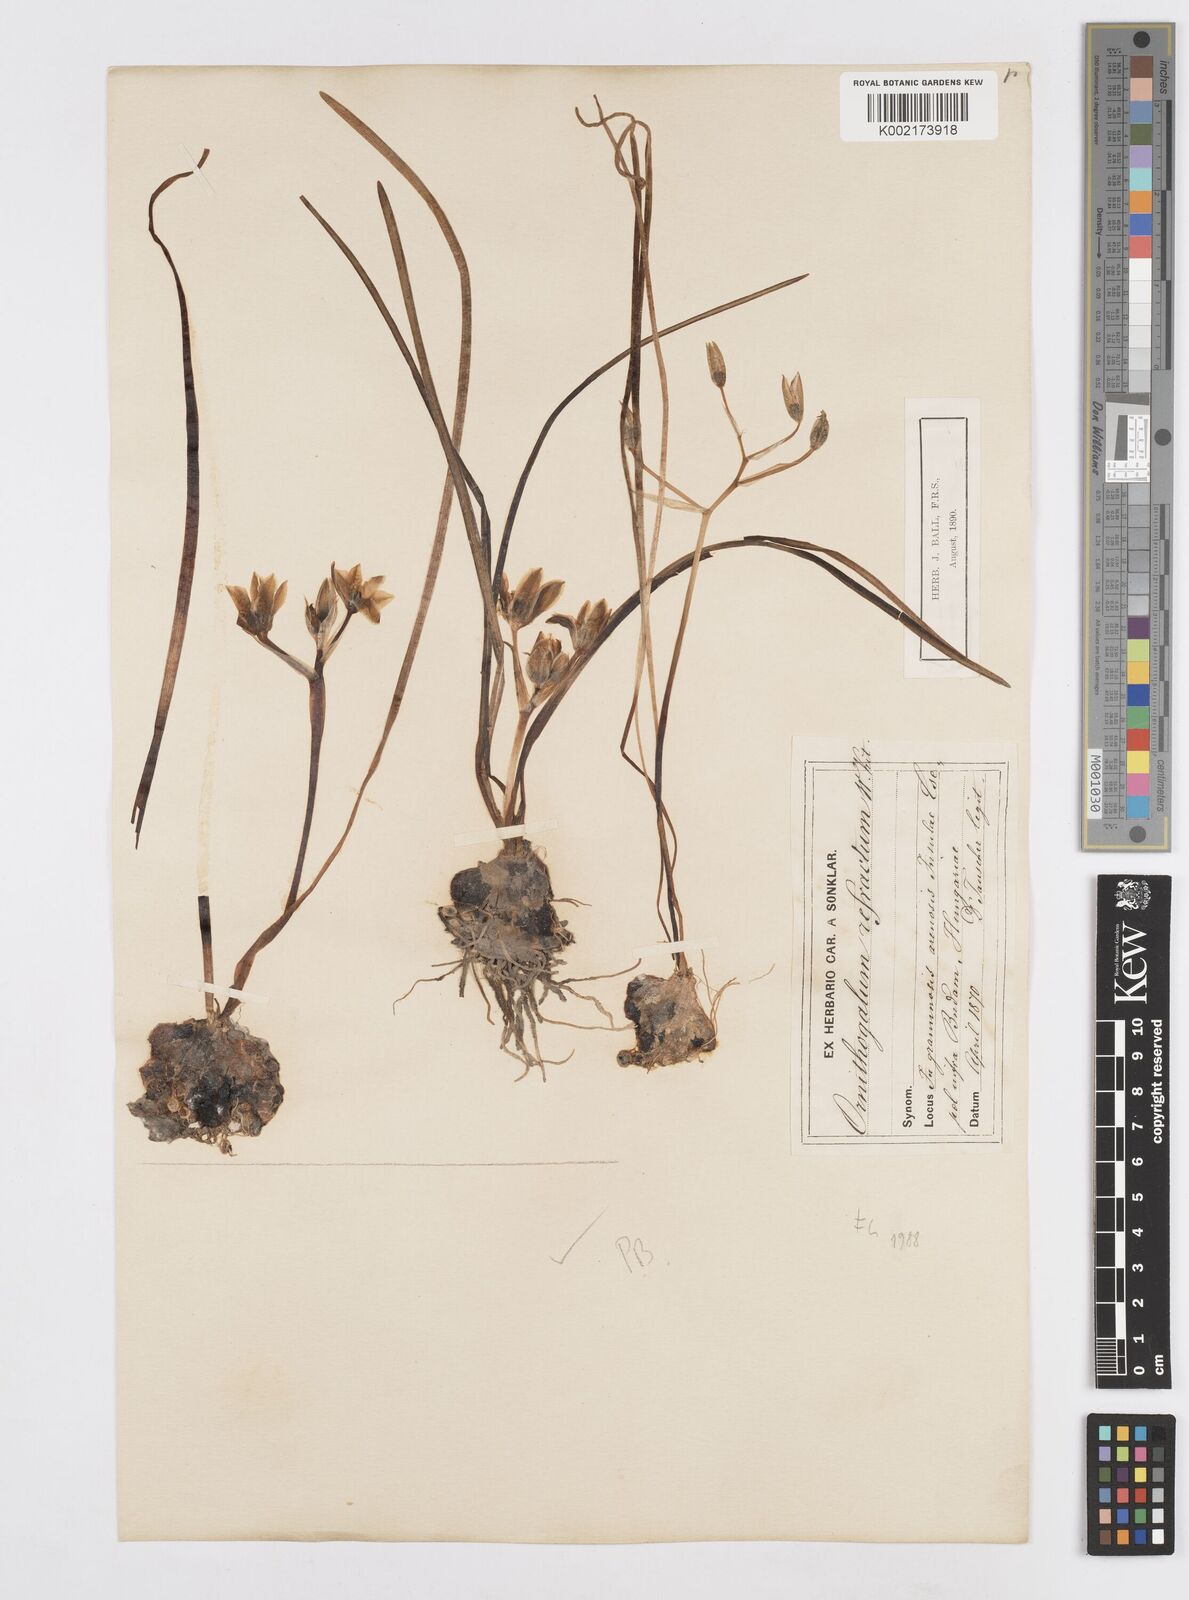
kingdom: Plantae
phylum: Tracheophyta
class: Liliopsida
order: Asparagales
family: Asparagaceae
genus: Ornithogalum
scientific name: Ornithogalum refractum
